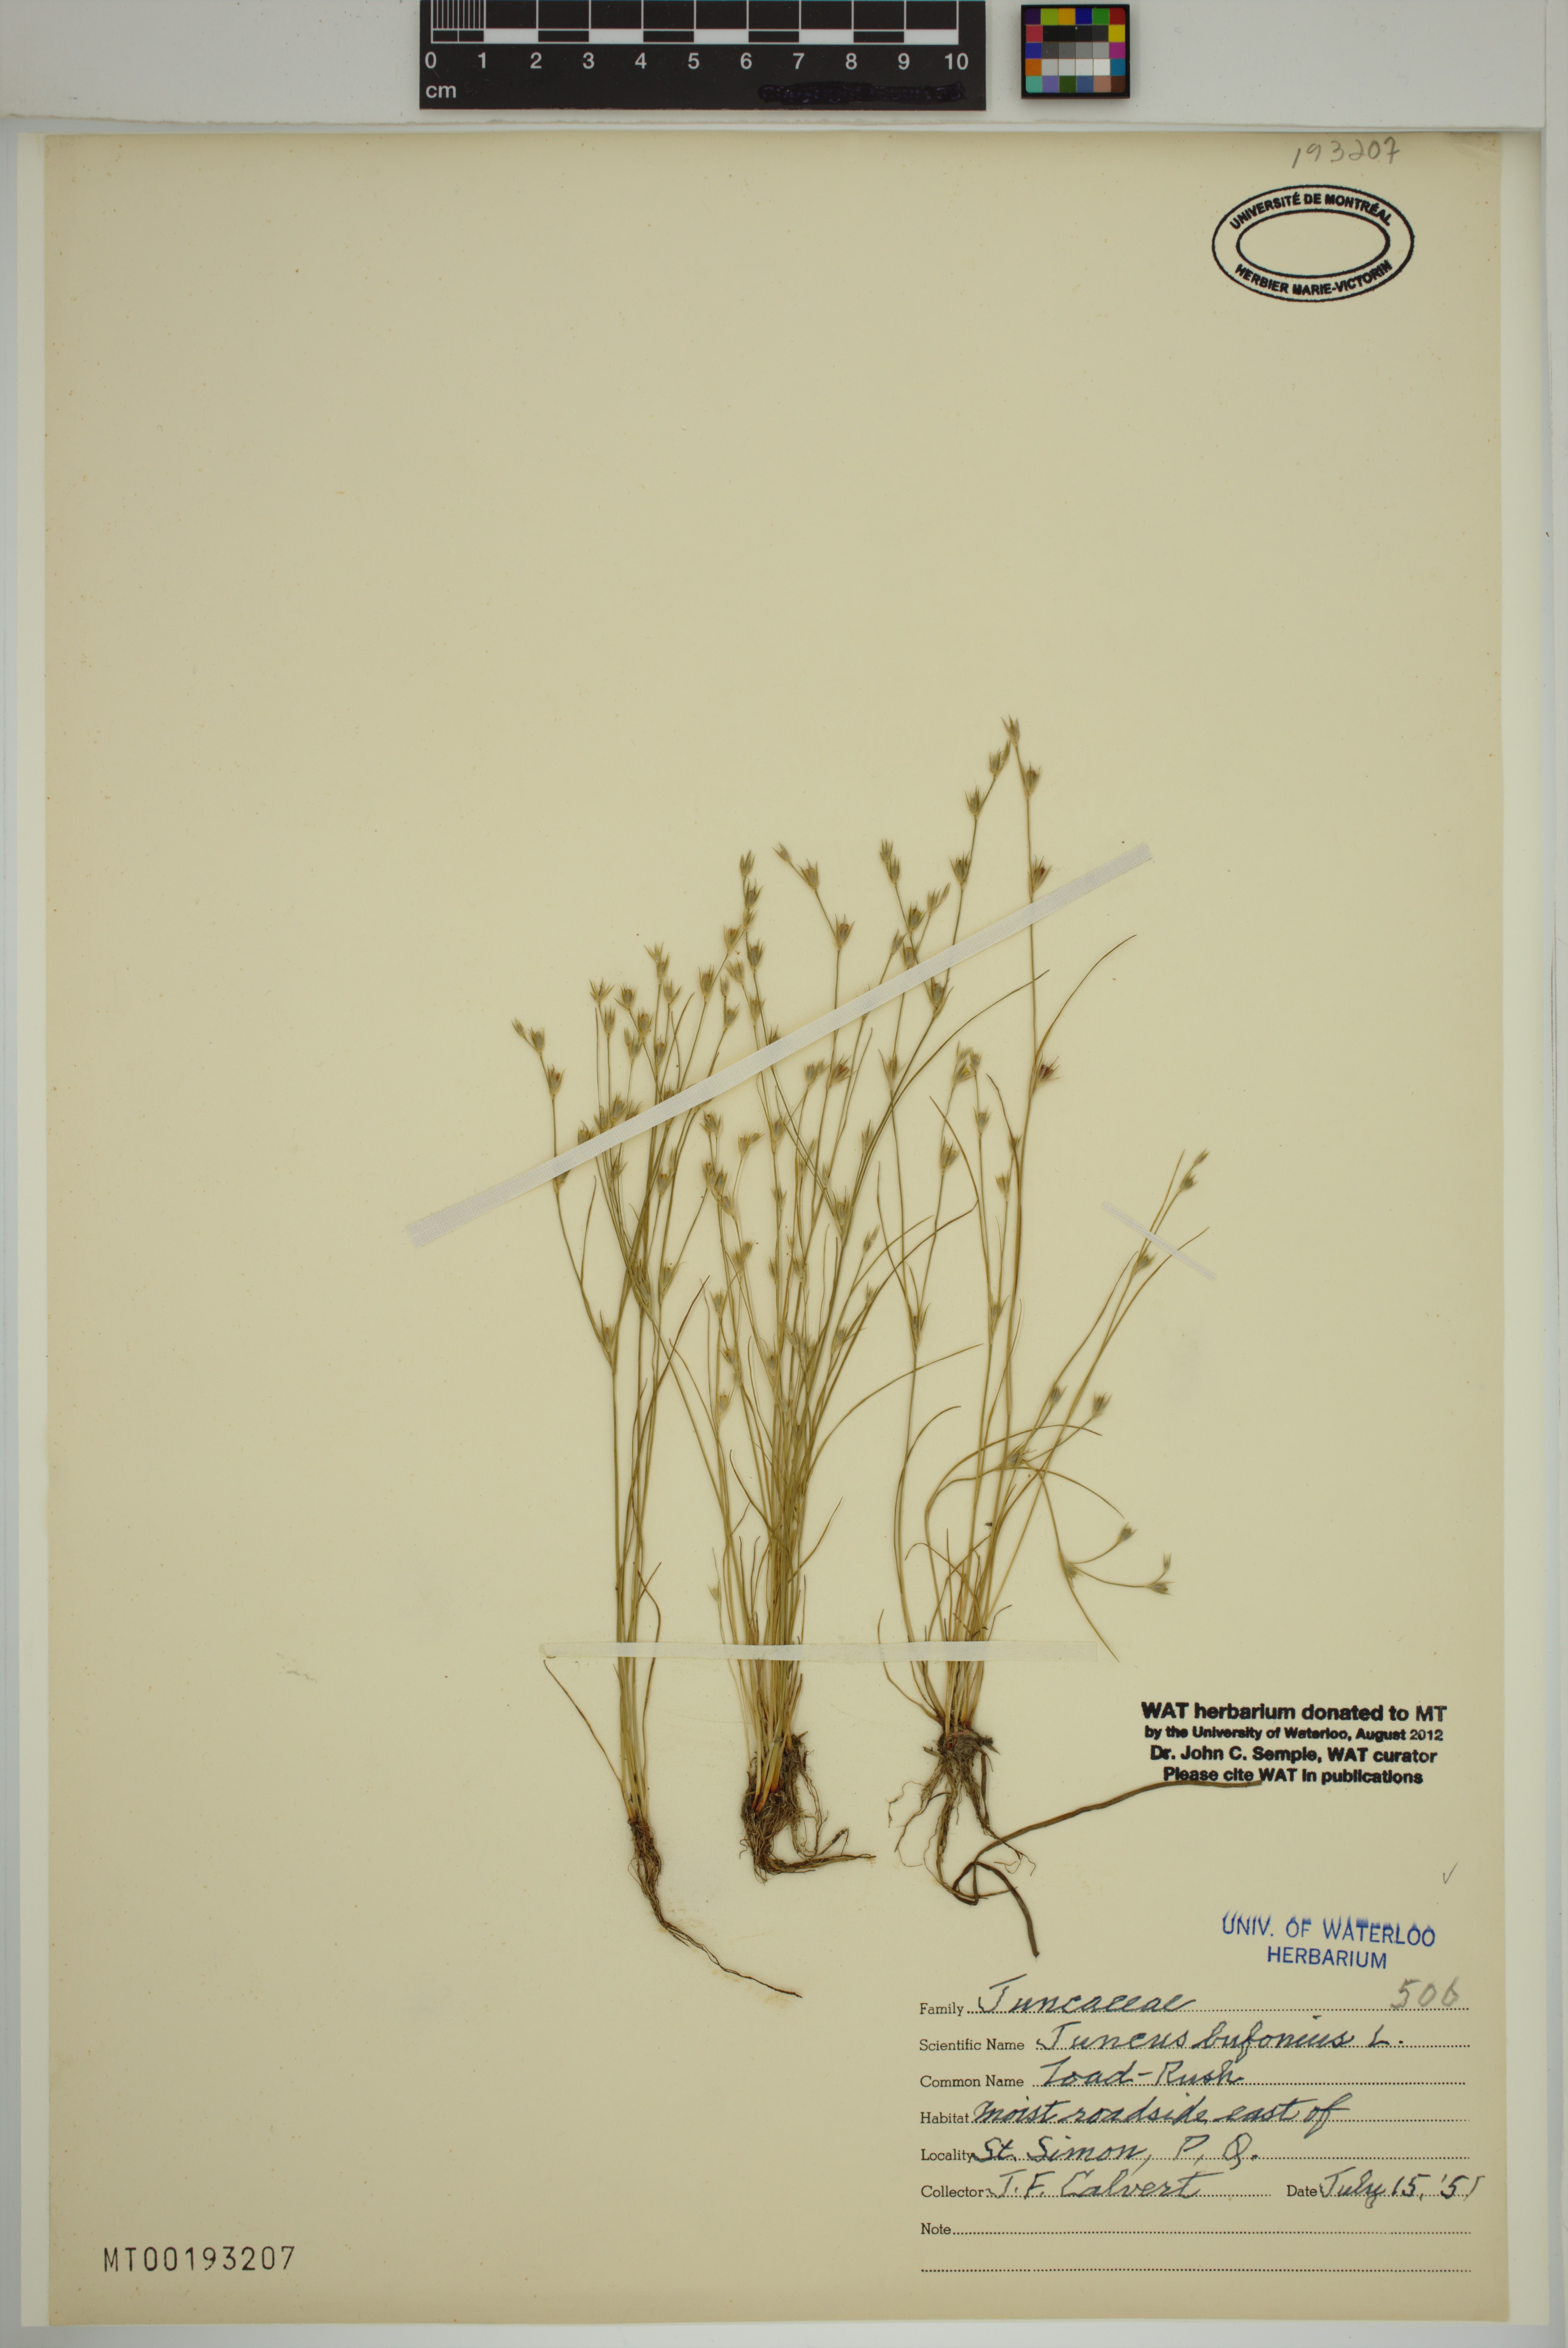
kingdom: Plantae
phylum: Tracheophyta
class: Liliopsida
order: Poales
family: Juncaceae
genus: Juncus
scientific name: Juncus bufonius
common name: Toad rush
